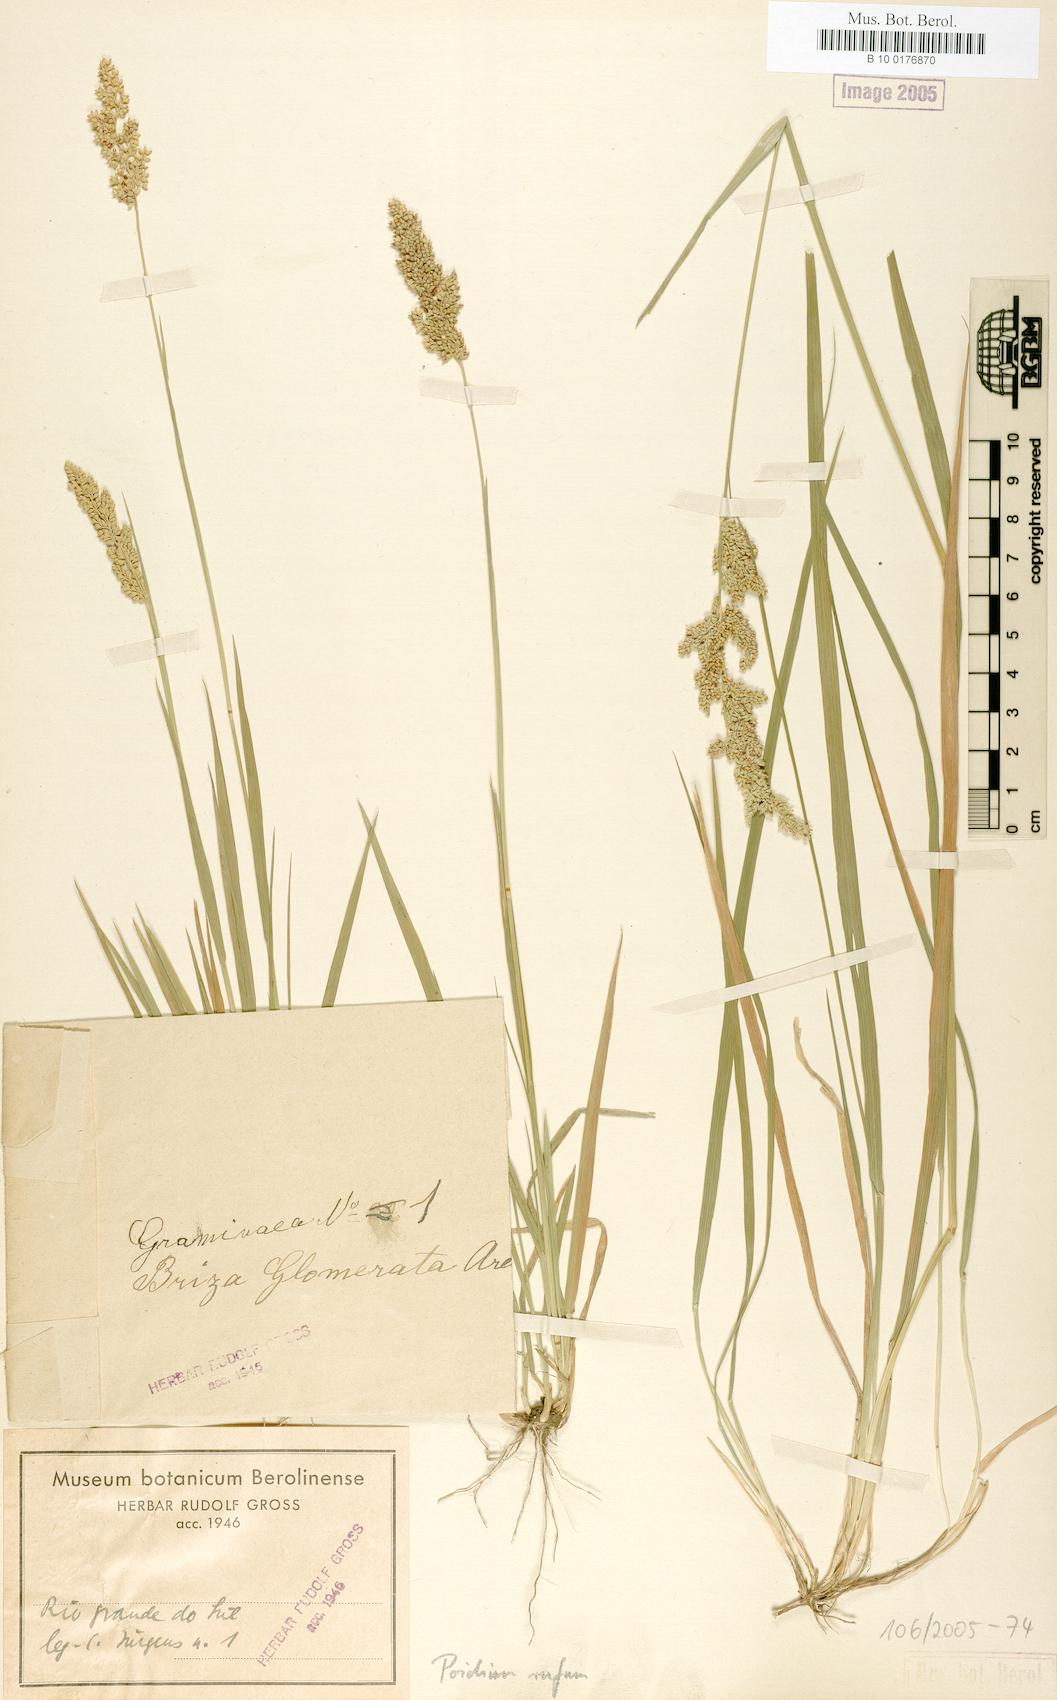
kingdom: Plantae
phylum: Tracheophyta
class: Liliopsida
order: Poales
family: Poaceae
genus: Lombardochloa
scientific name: Lombardochloa rufa
